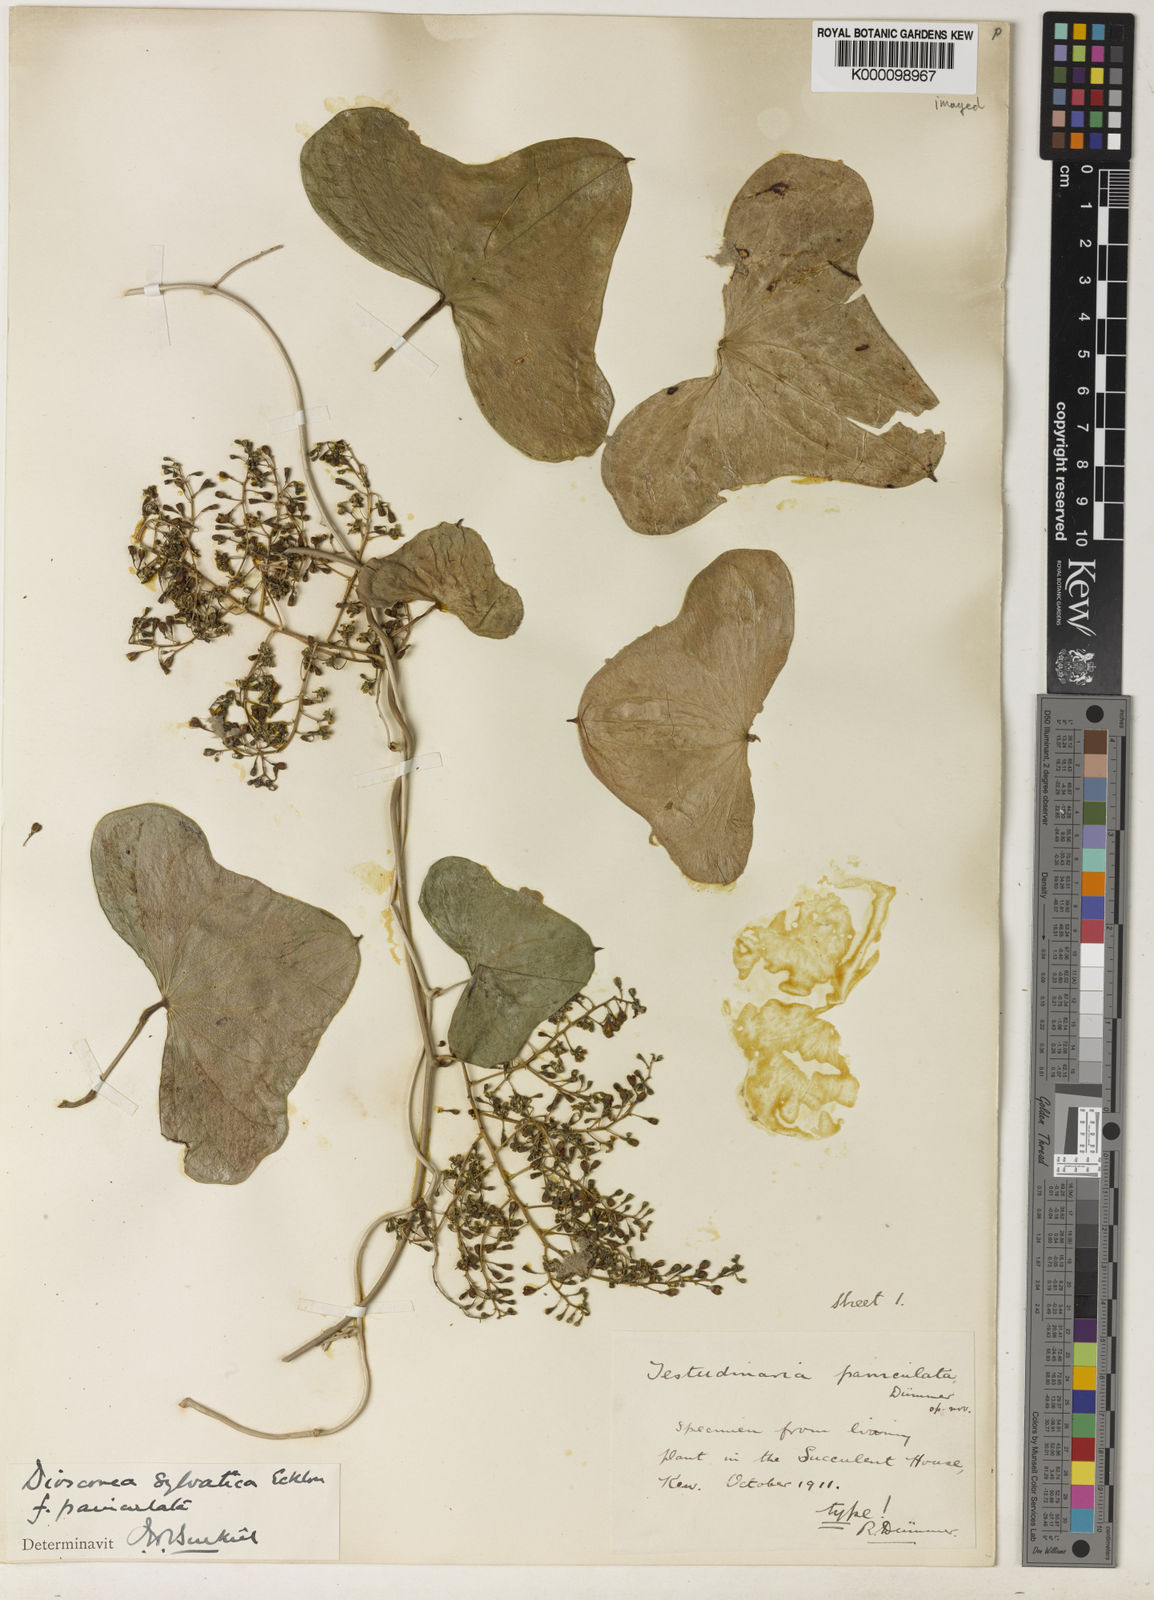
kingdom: Plantae
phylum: Tracheophyta
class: Liliopsida
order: Dioscoreales
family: Dioscoreaceae
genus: Dioscorea
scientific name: Dioscorea sylvatica
